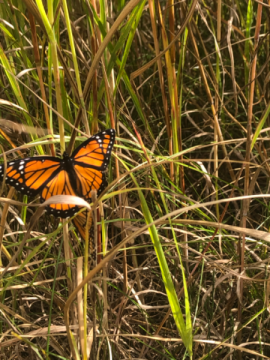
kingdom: Animalia
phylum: Arthropoda
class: Insecta
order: Lepidoptera
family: Nymphalidae
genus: Limenitis
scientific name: Limenitis archippus
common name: Viceroy
